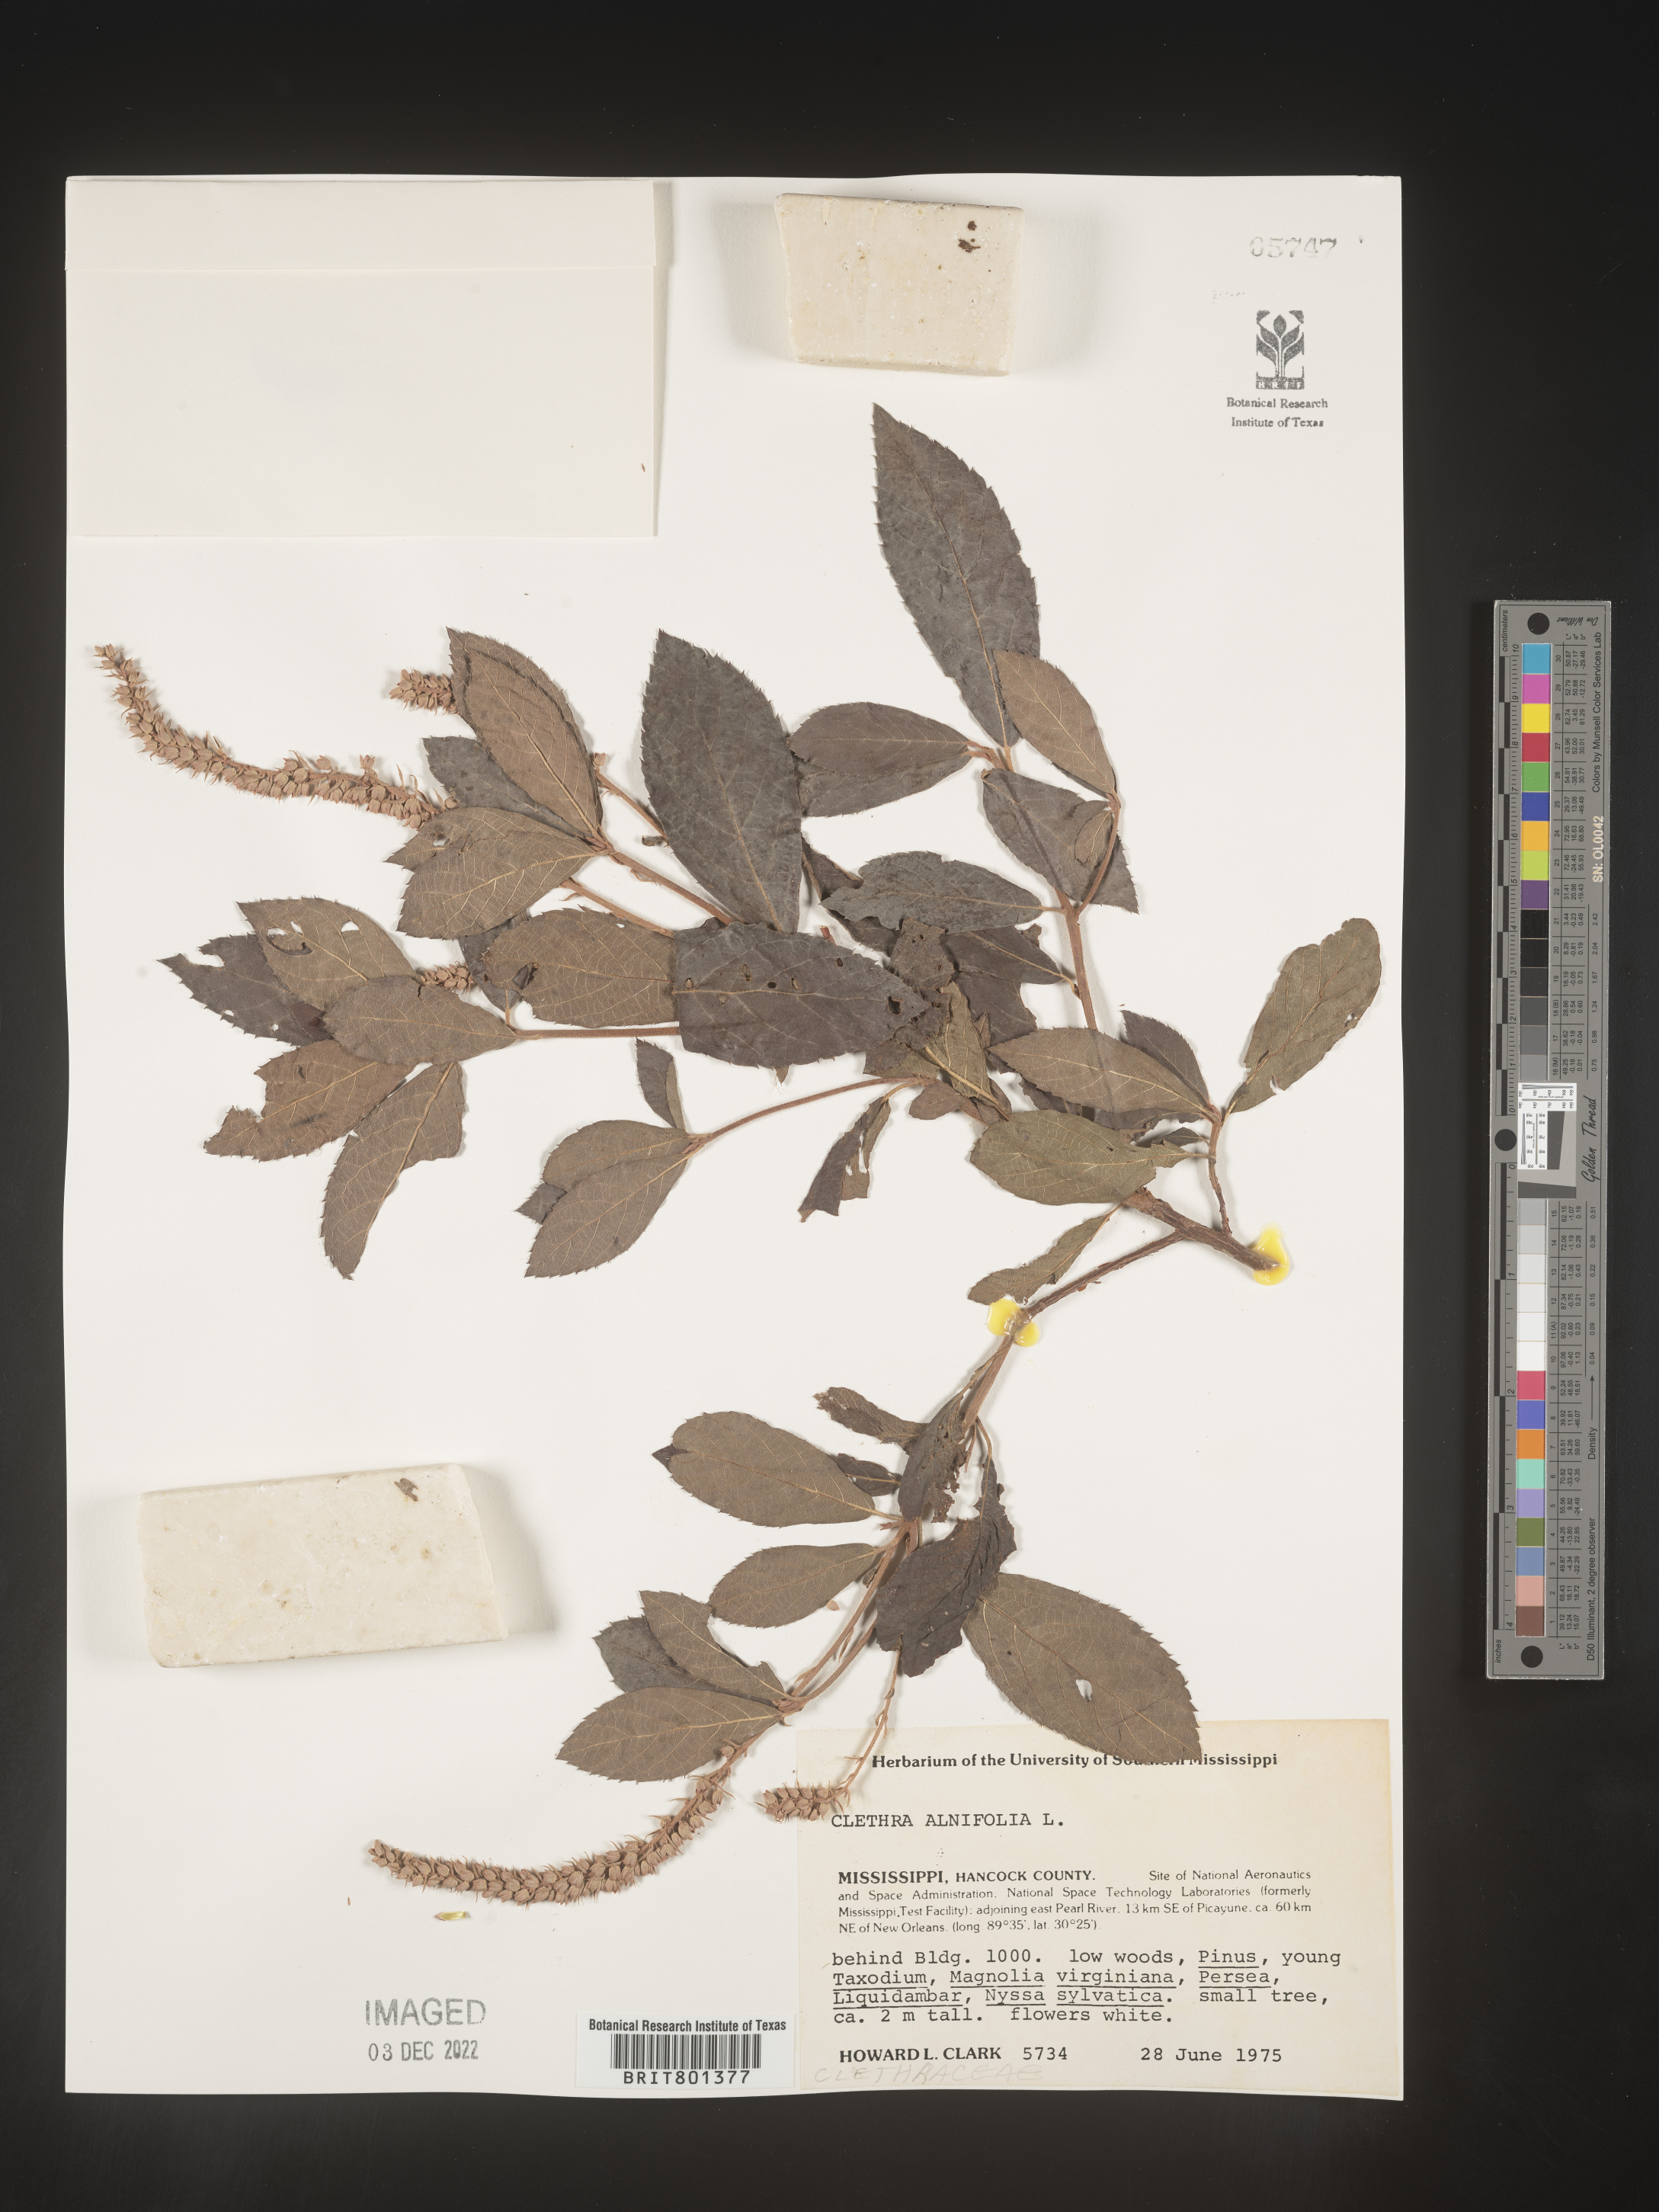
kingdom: Plantae
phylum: Tracheophyta
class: Magnoliopsida
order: Ericales
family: Clethraceae
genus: Clethra
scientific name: Clethra alnifolia
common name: Sweet pepperbush
